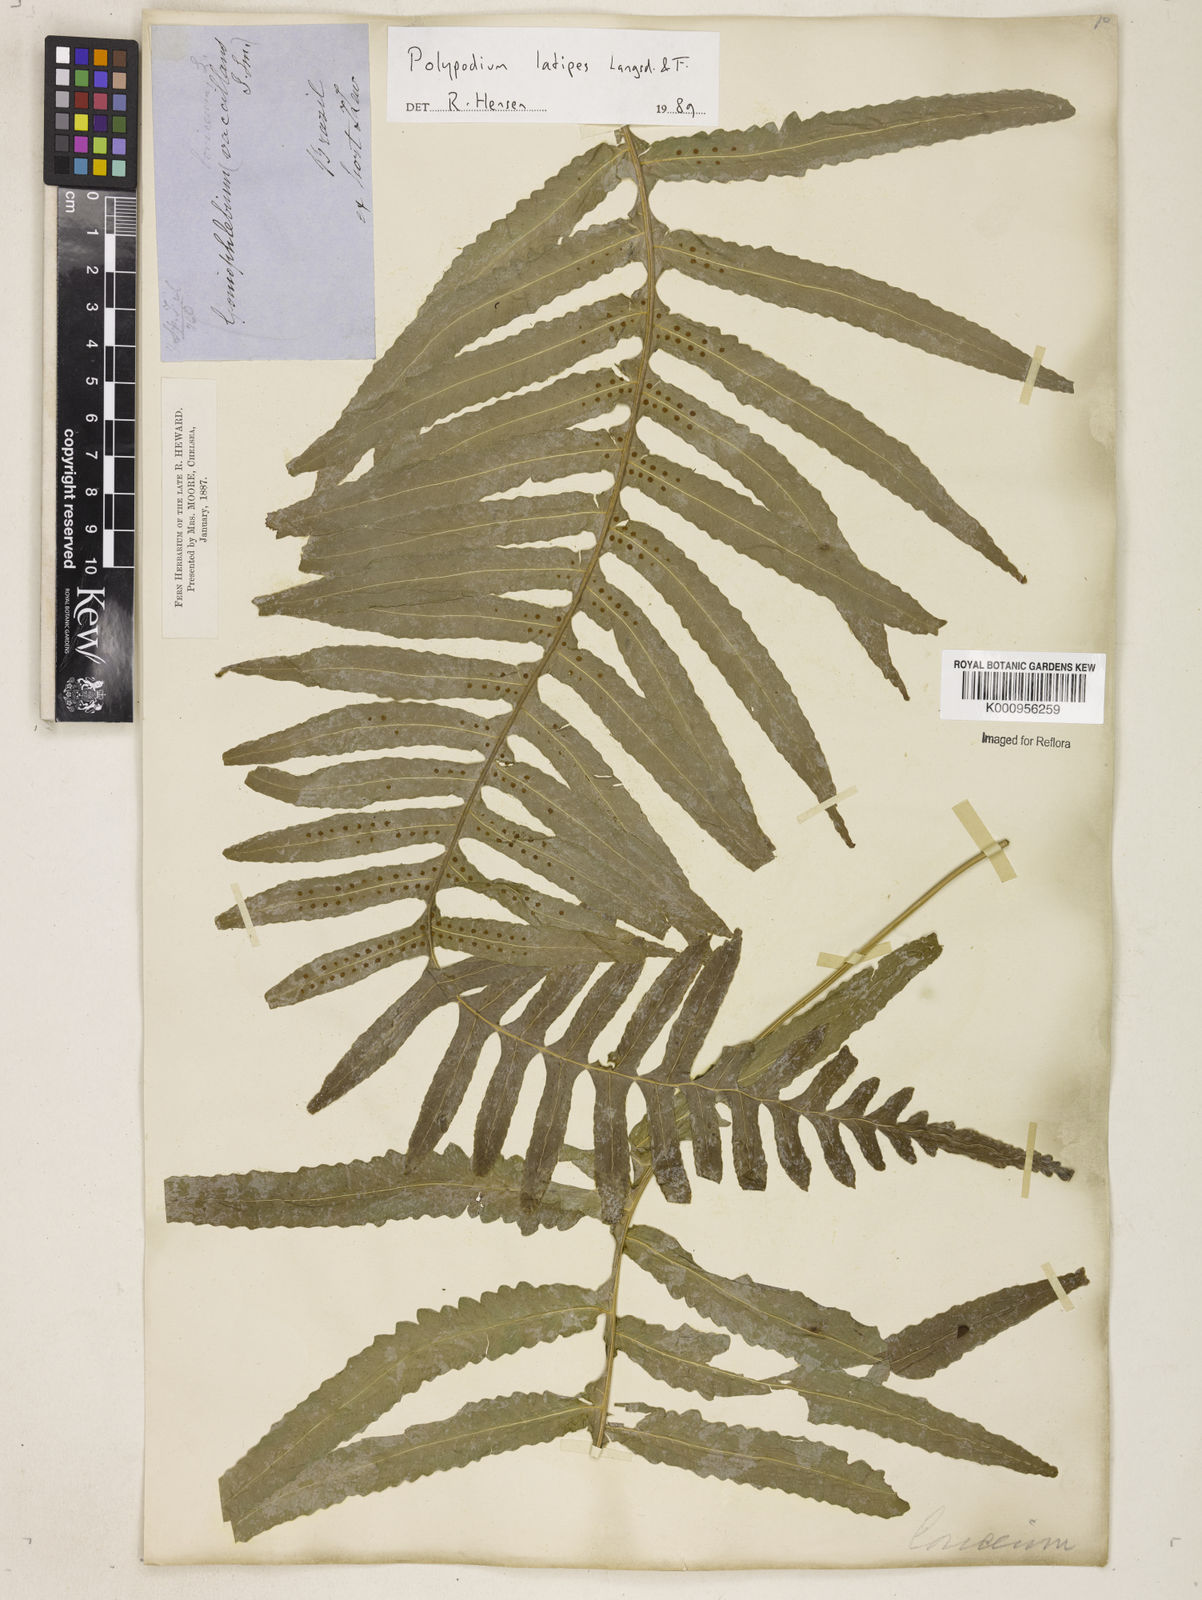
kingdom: Plantae
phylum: Tracheophyta
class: Polypodiopsida
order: Polypodiales
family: Polypodiaceae
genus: Serpocaulon
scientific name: Serpocaulon loriceum
